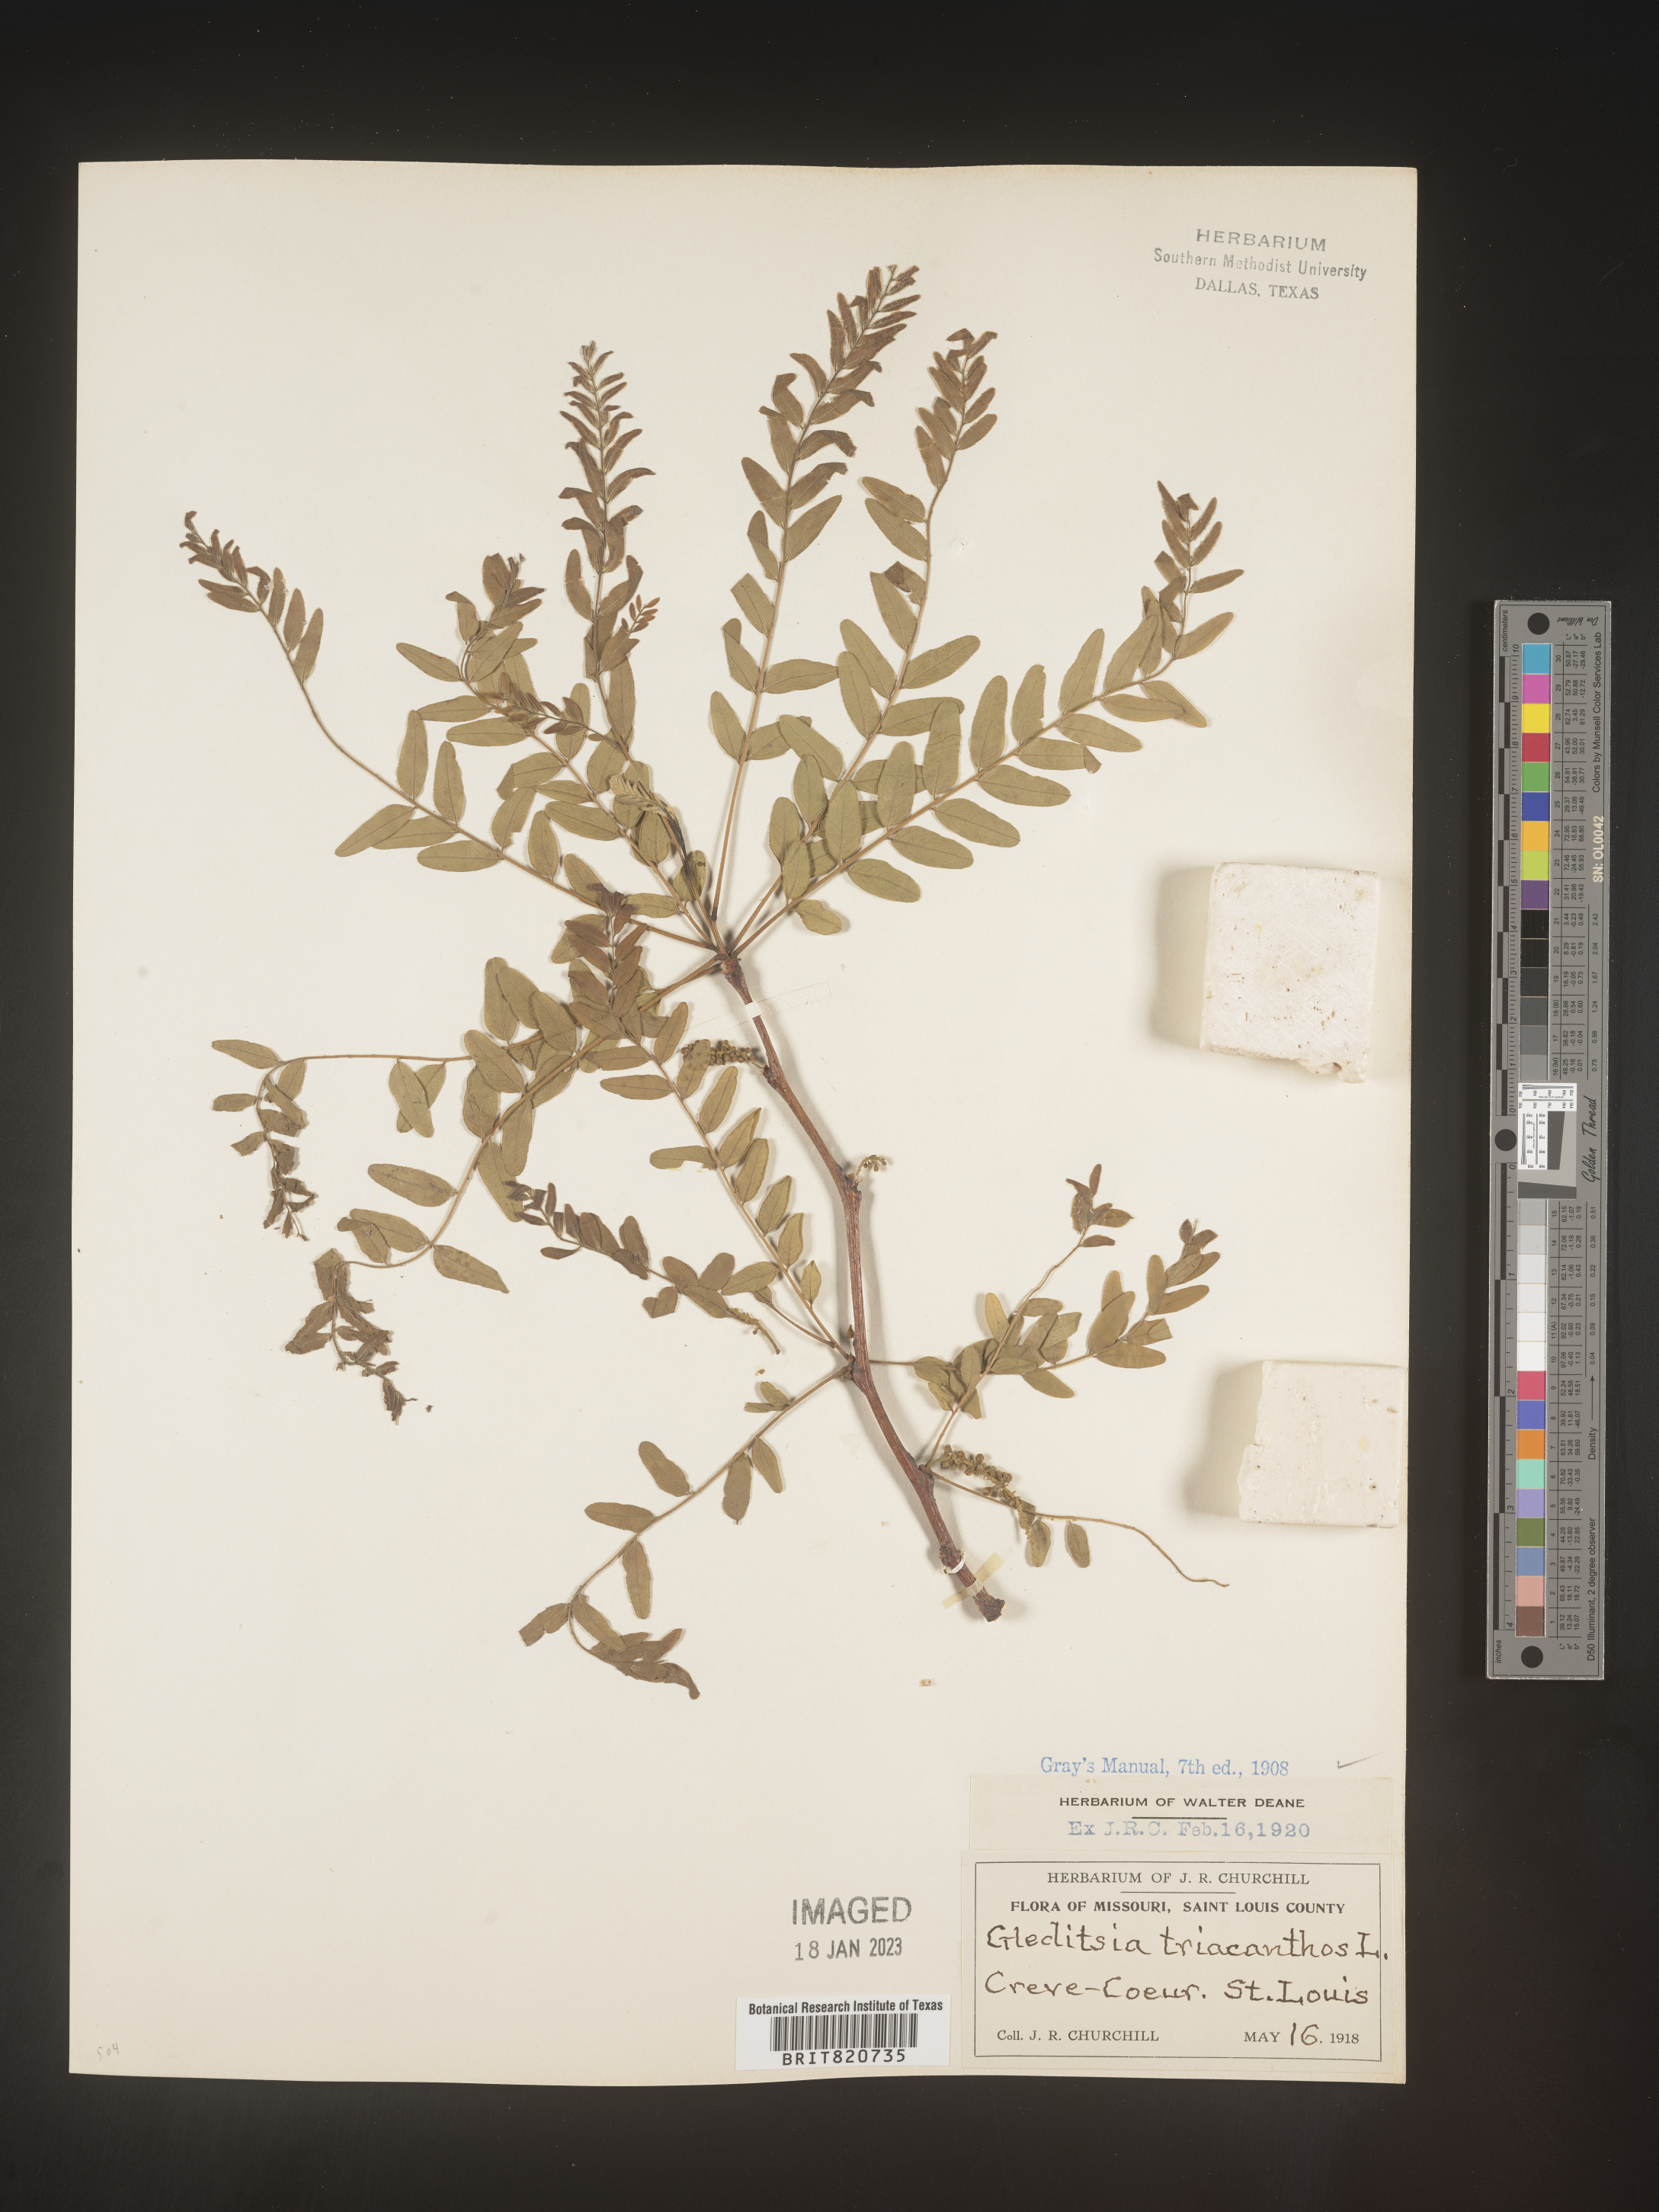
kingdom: Plantae
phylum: Tracheophyta
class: Magnoliopsida
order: Fabales
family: Fabaceae
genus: Gleditsia
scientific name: Gleditsia triacanthos
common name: Common honeylocust
